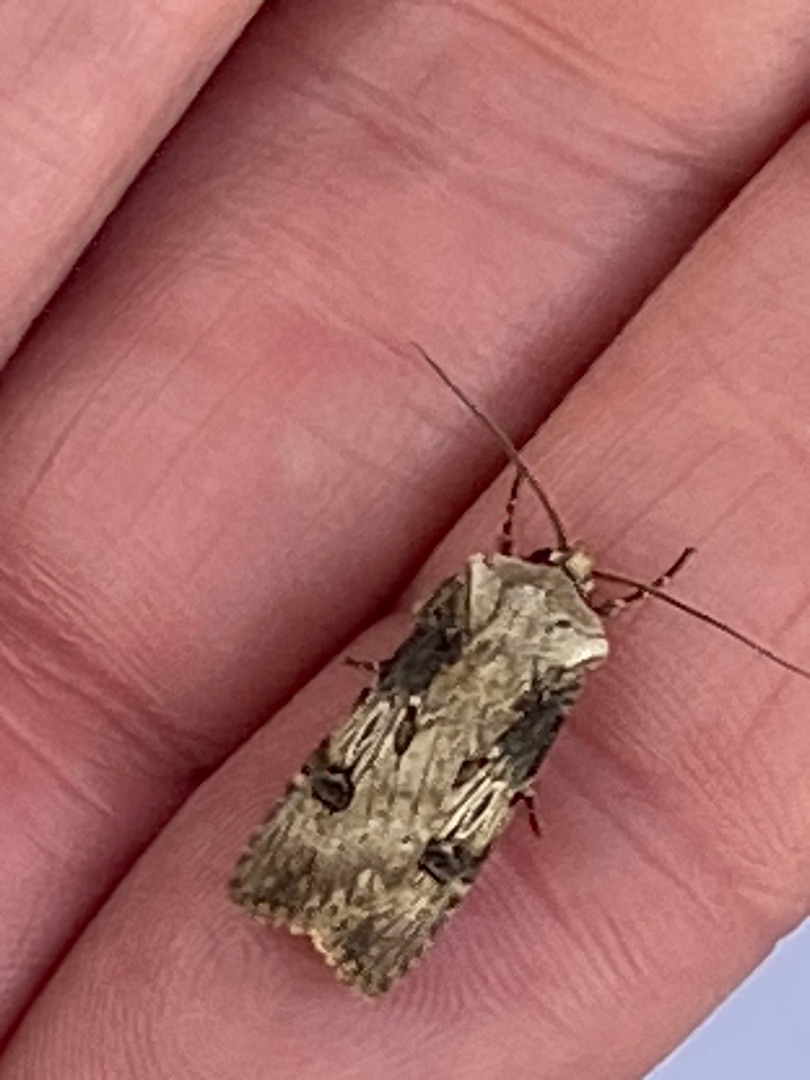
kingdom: Animalia
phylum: Arthropoda
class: Insecta
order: Lepidoptera
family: Noctuidae
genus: Agrotis
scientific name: Agrotis puta
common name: Frønnet landmand
